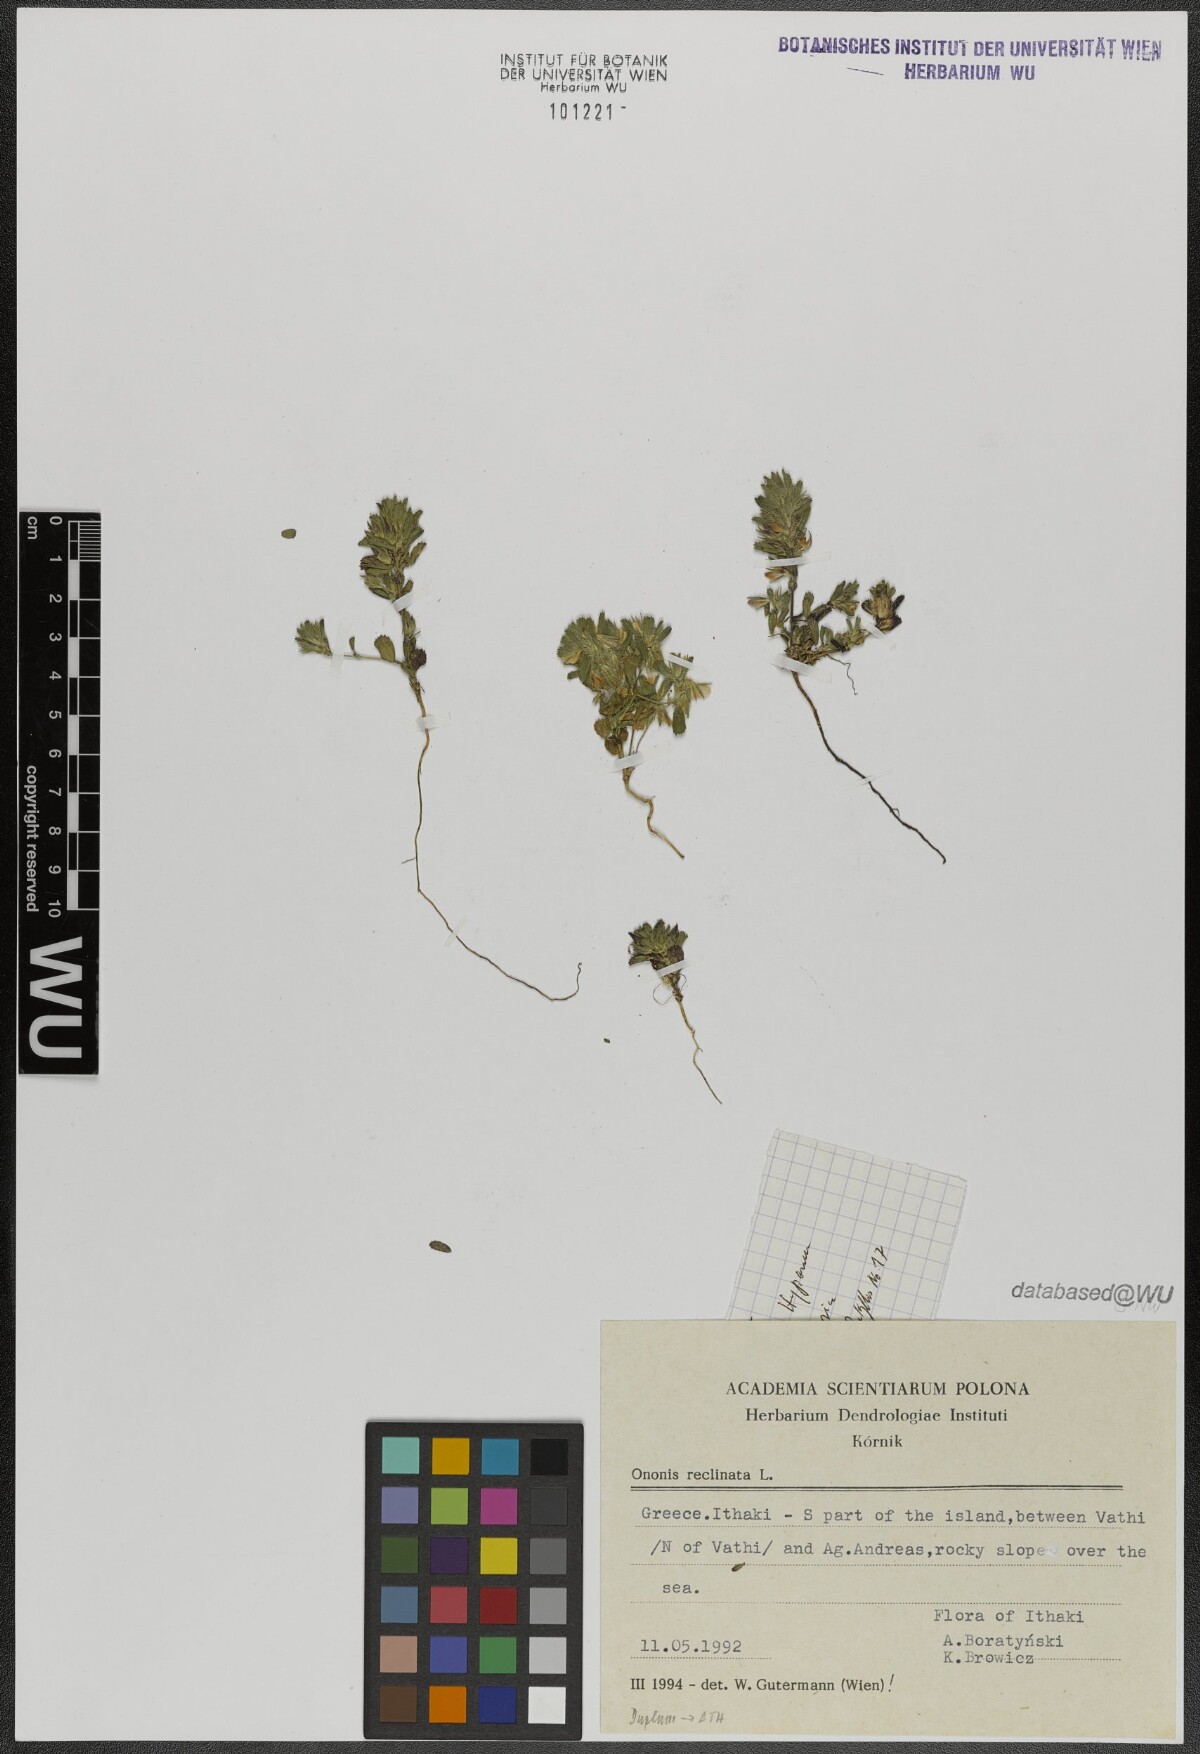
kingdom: Plantae
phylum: Tracheophyta
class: Magnoliopsida
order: Fabales
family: Fabaceae
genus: Ononis
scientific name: Ononis reclinata
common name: Small restharrow
